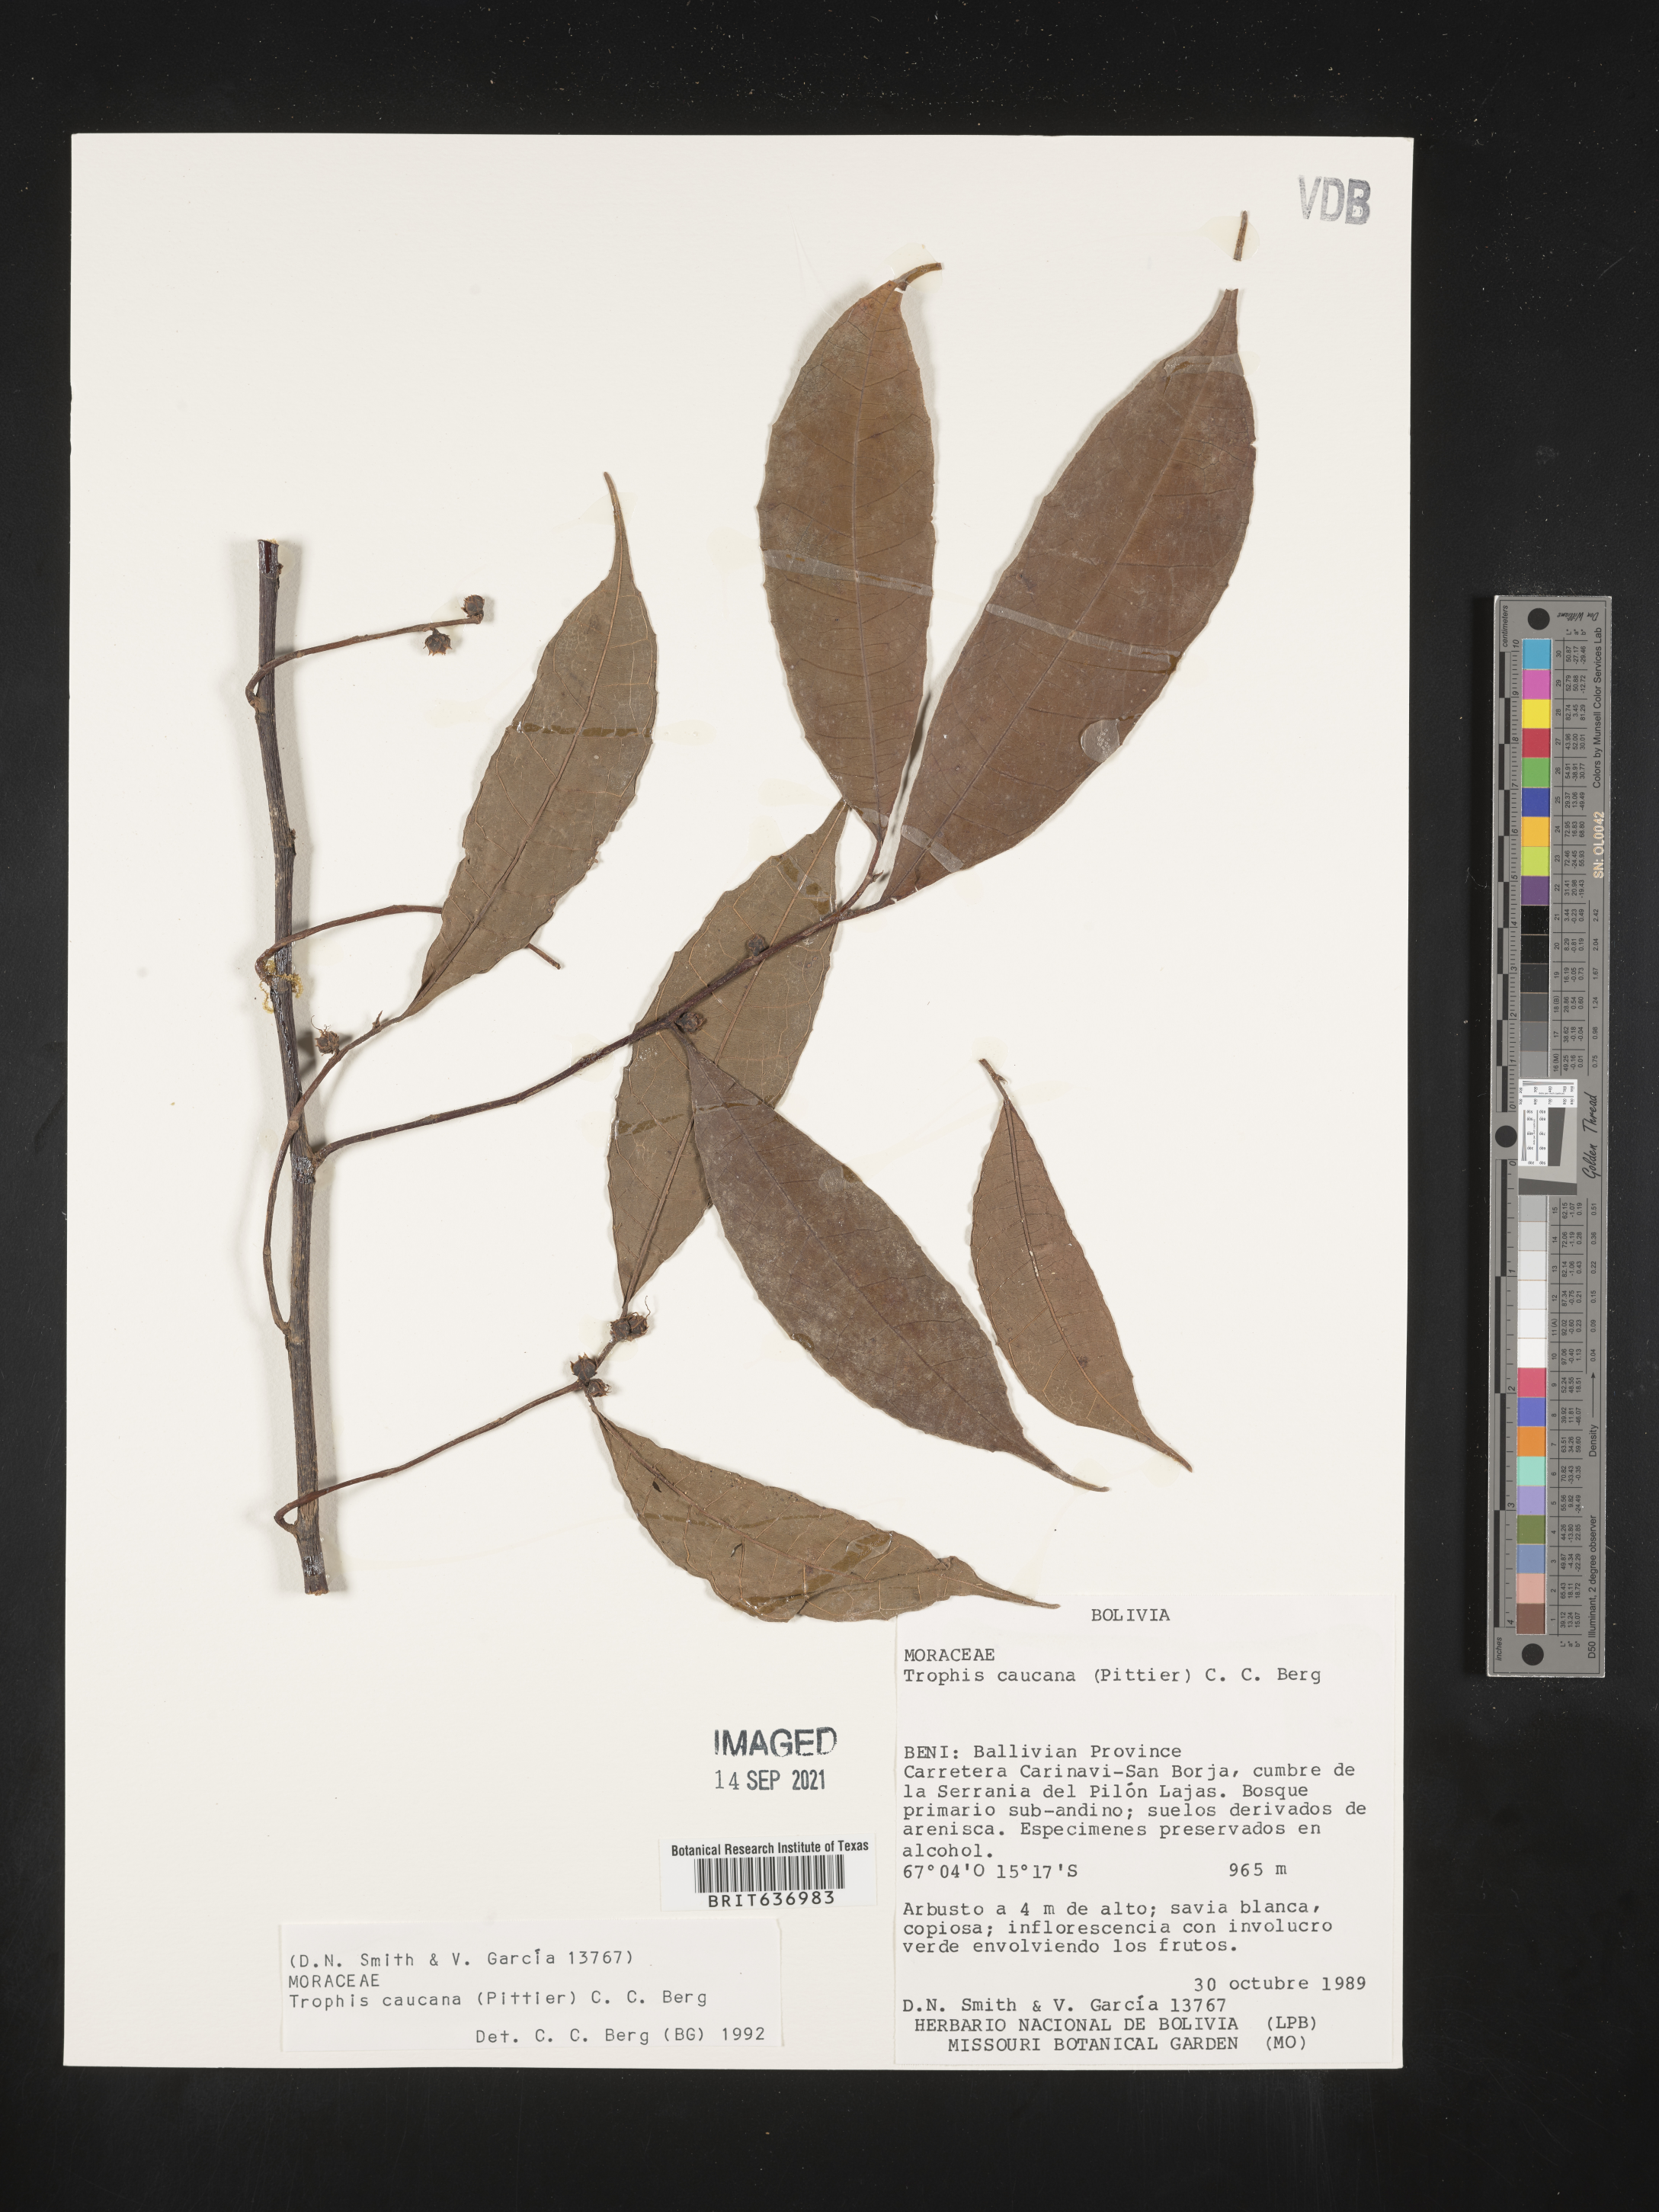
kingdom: Plantae
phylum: Tracheophyta
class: Magnoliopsida
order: Rosales
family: Moraceae
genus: Trophis
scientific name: Trophis
